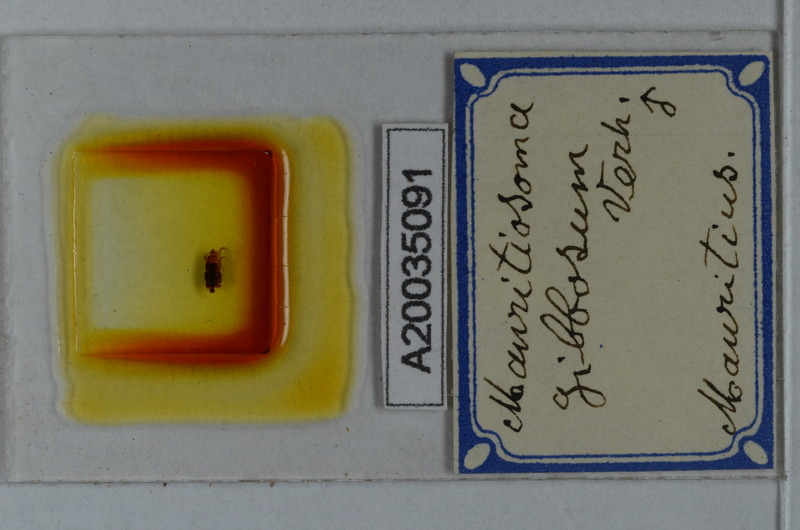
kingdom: Animalia
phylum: Arthropoda
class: Diplopoda
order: Polydesmida
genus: Mauritiosoma
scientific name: Mauritiosoma gibbosum
